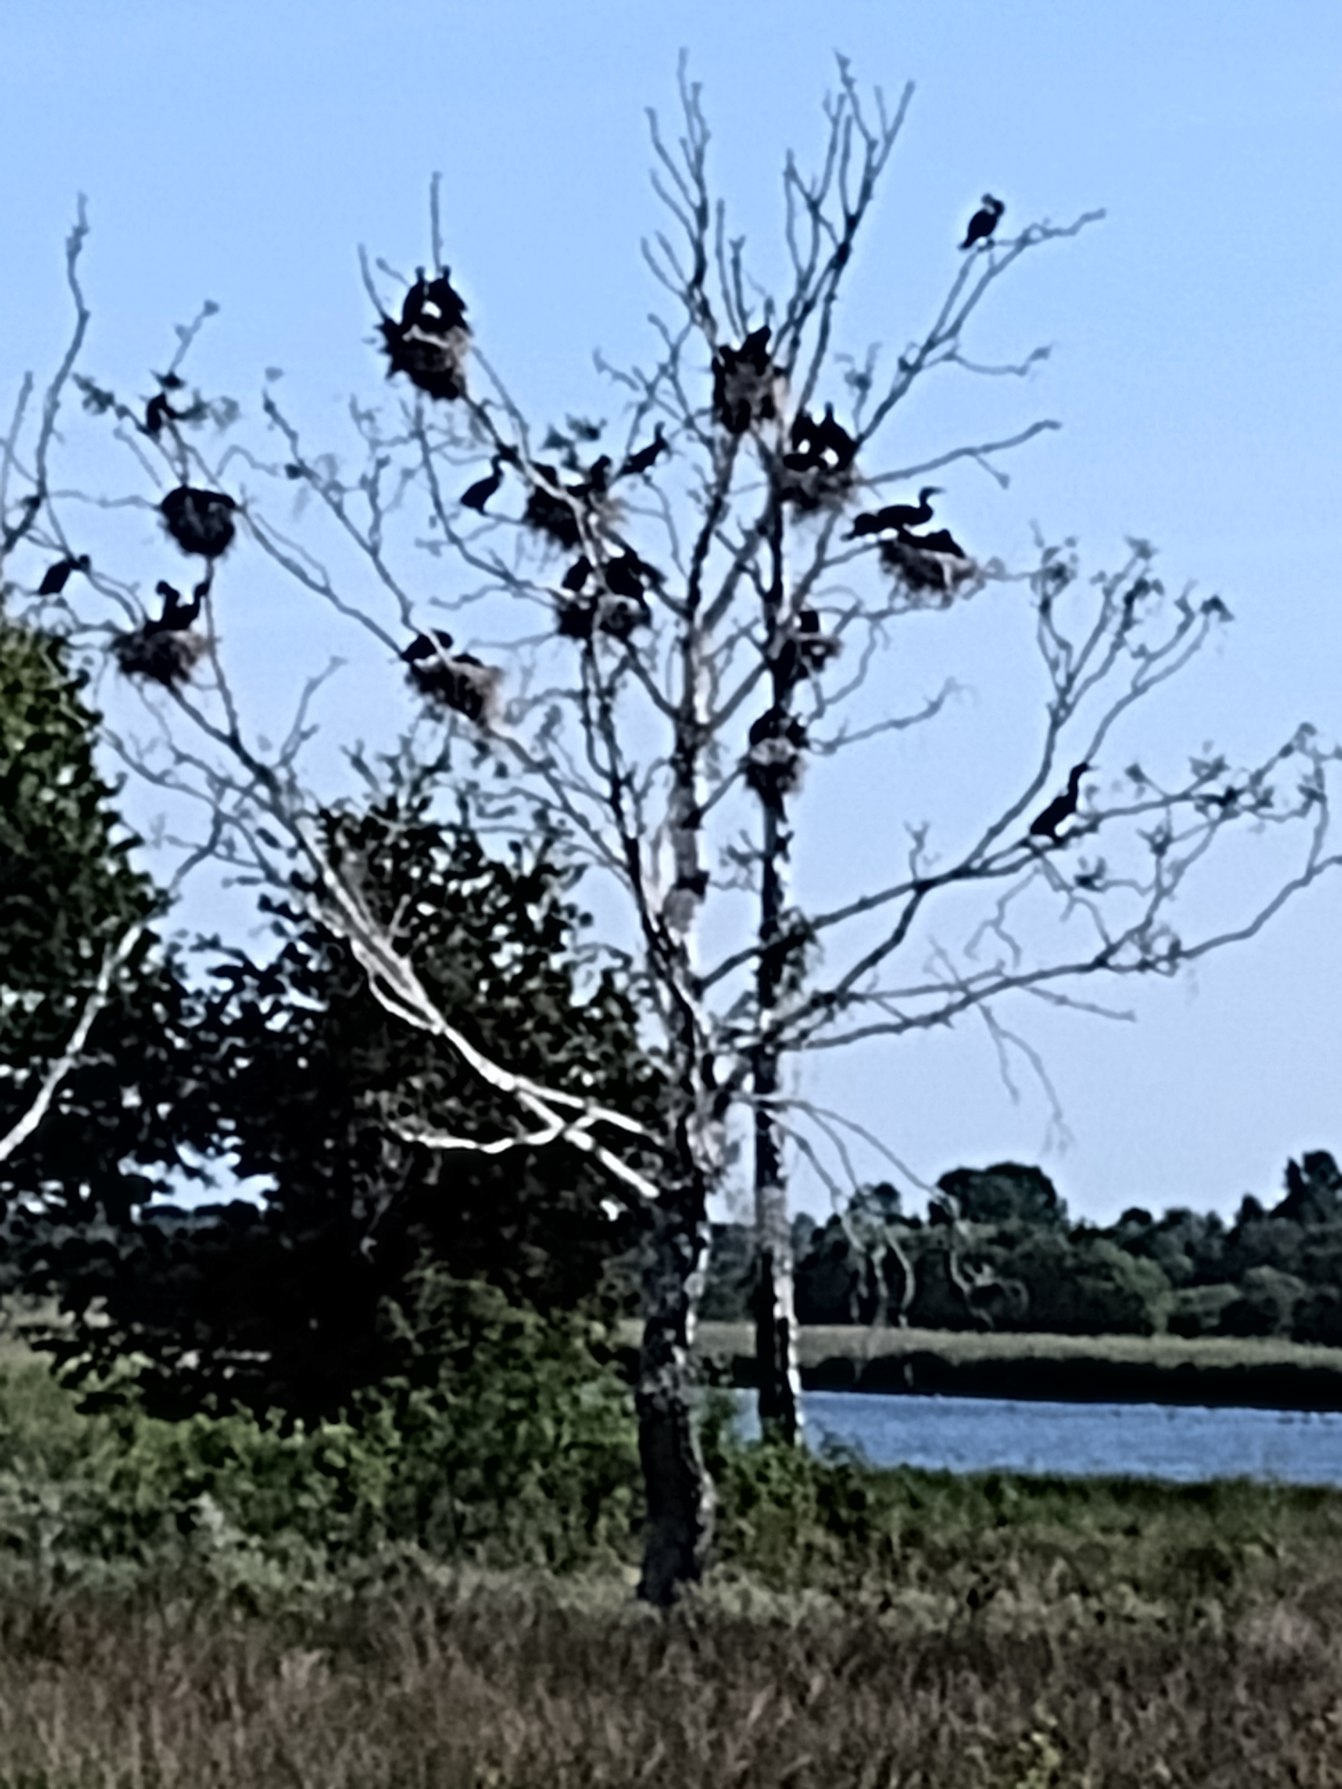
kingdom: Animalia
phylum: Chordata
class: Aves
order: Suliformes
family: Phalacrocoracidae
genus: Phalacrocorax
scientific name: Phalacrocorax carbo
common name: Skarv
